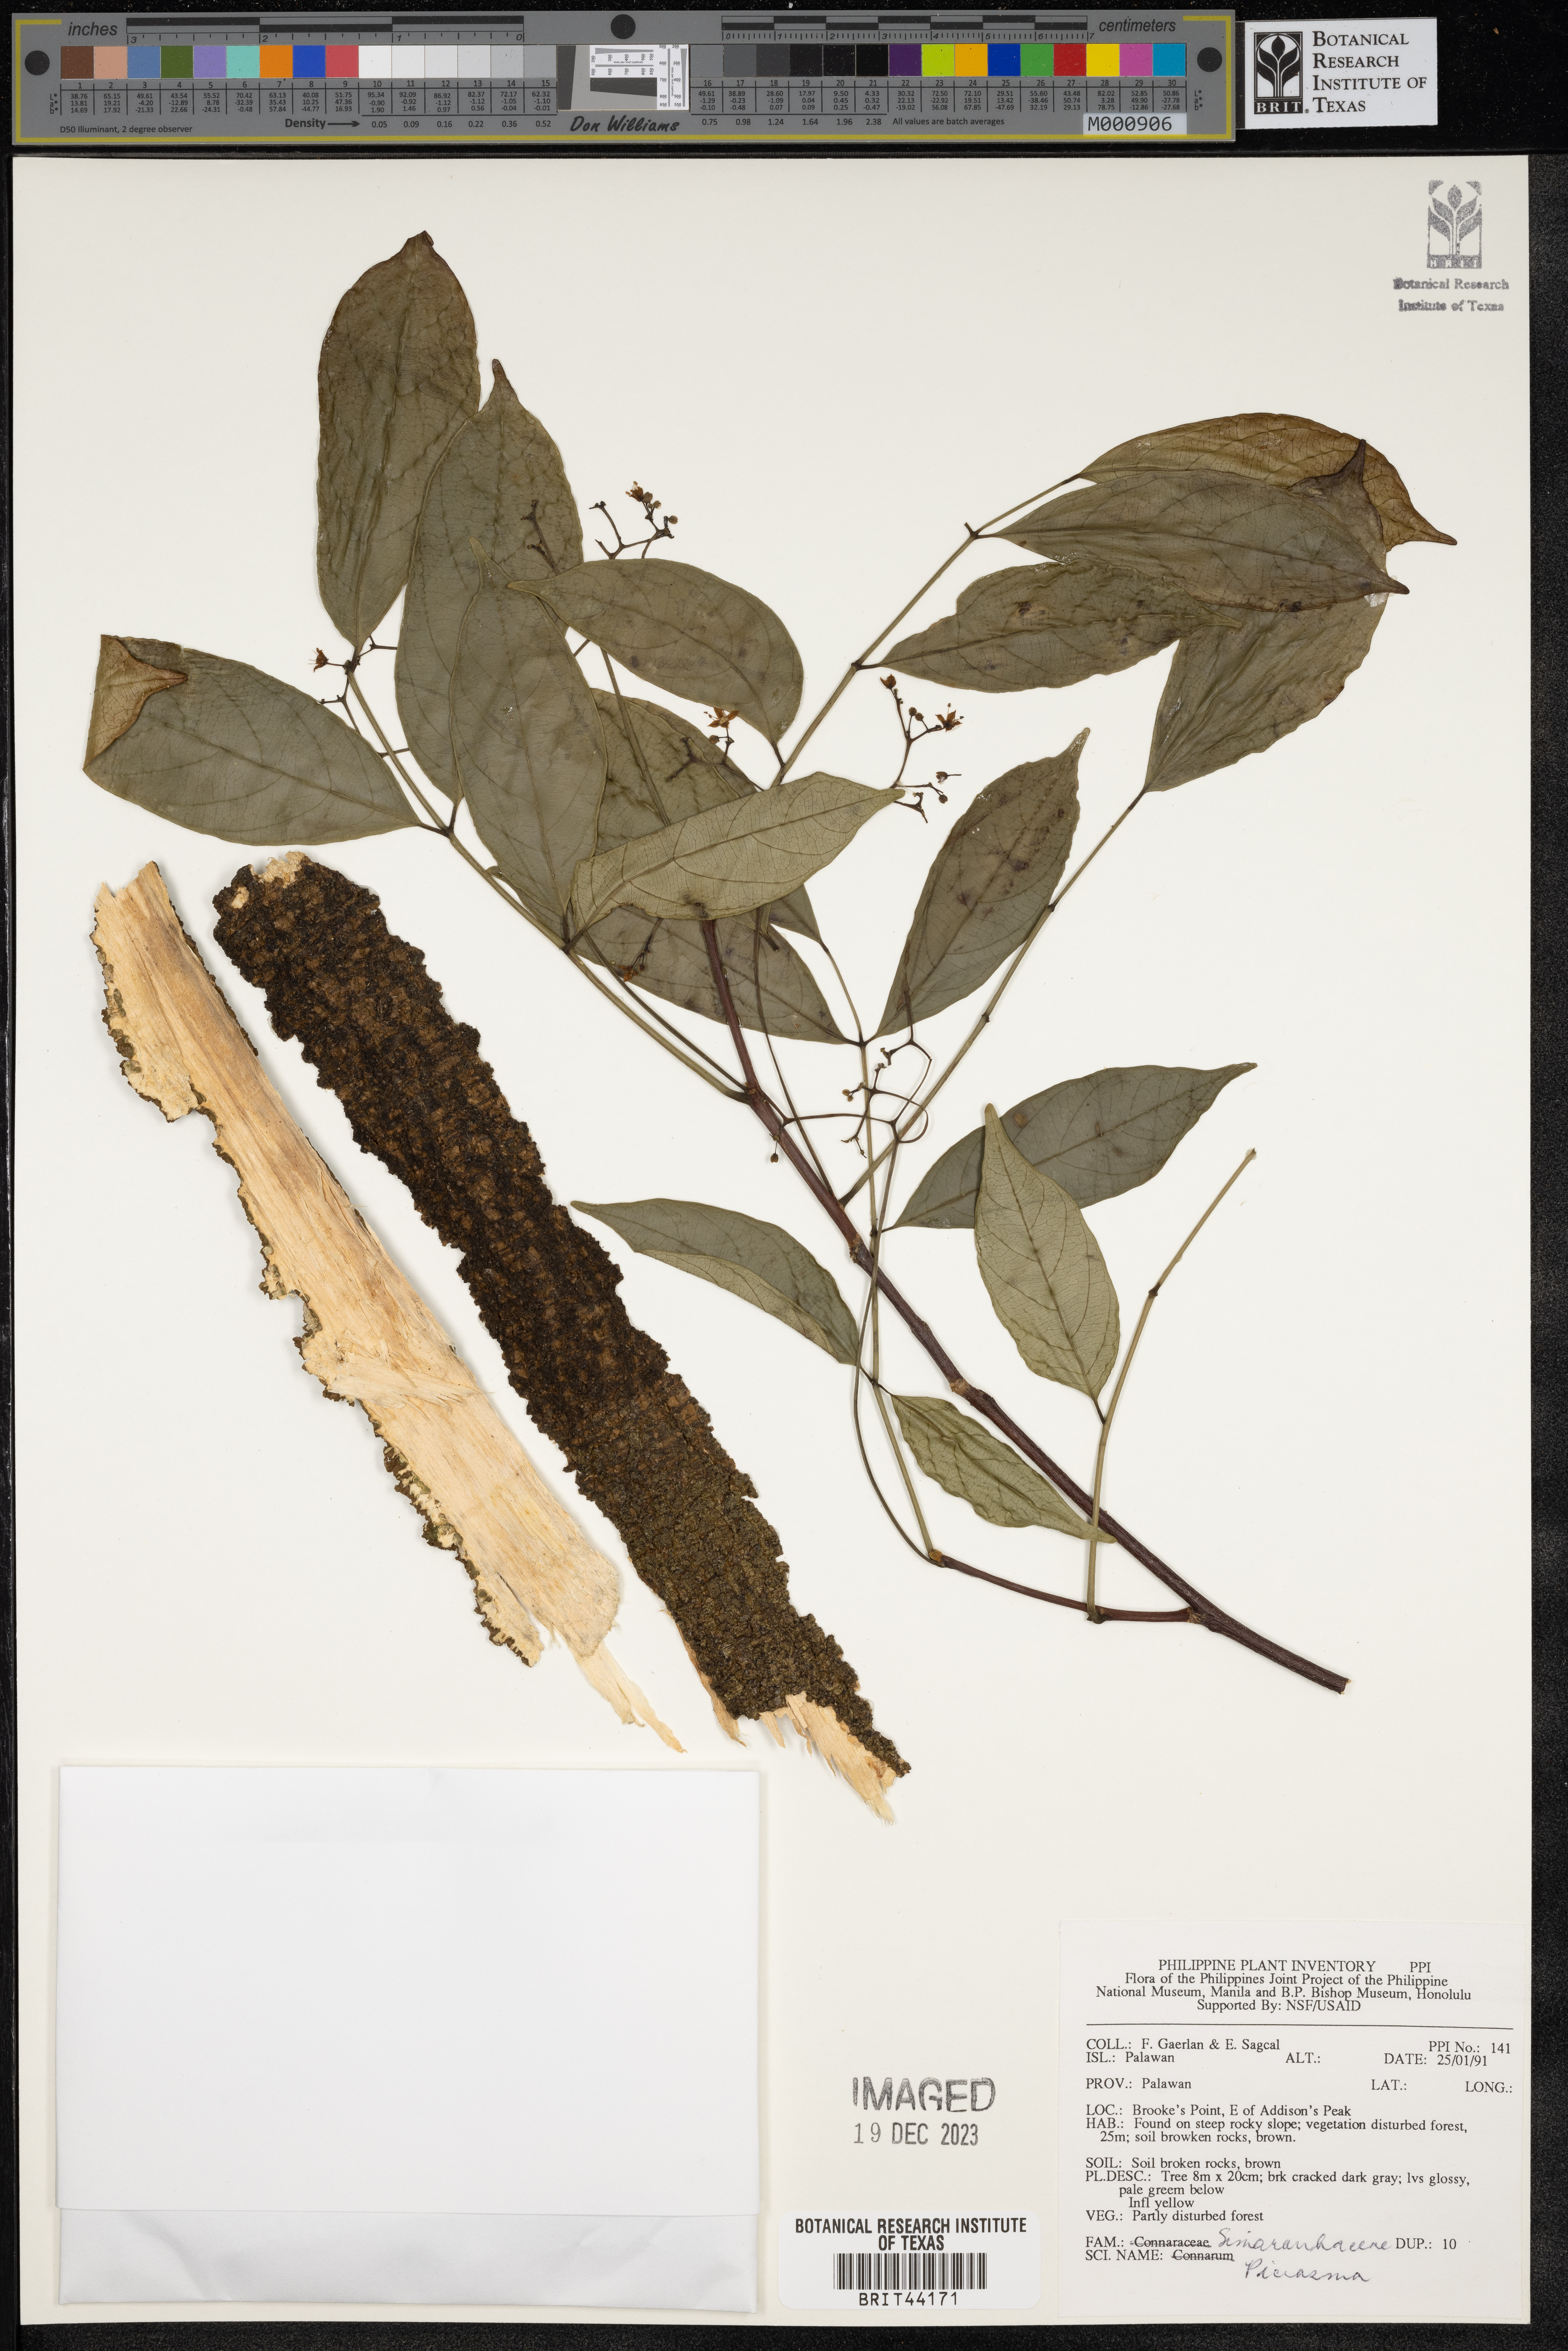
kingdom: Plantae
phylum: Tracheophyta
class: Magnoliopsida
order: Sapindales
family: Simaroubaceae
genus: Picrasma
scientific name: Picrasma
